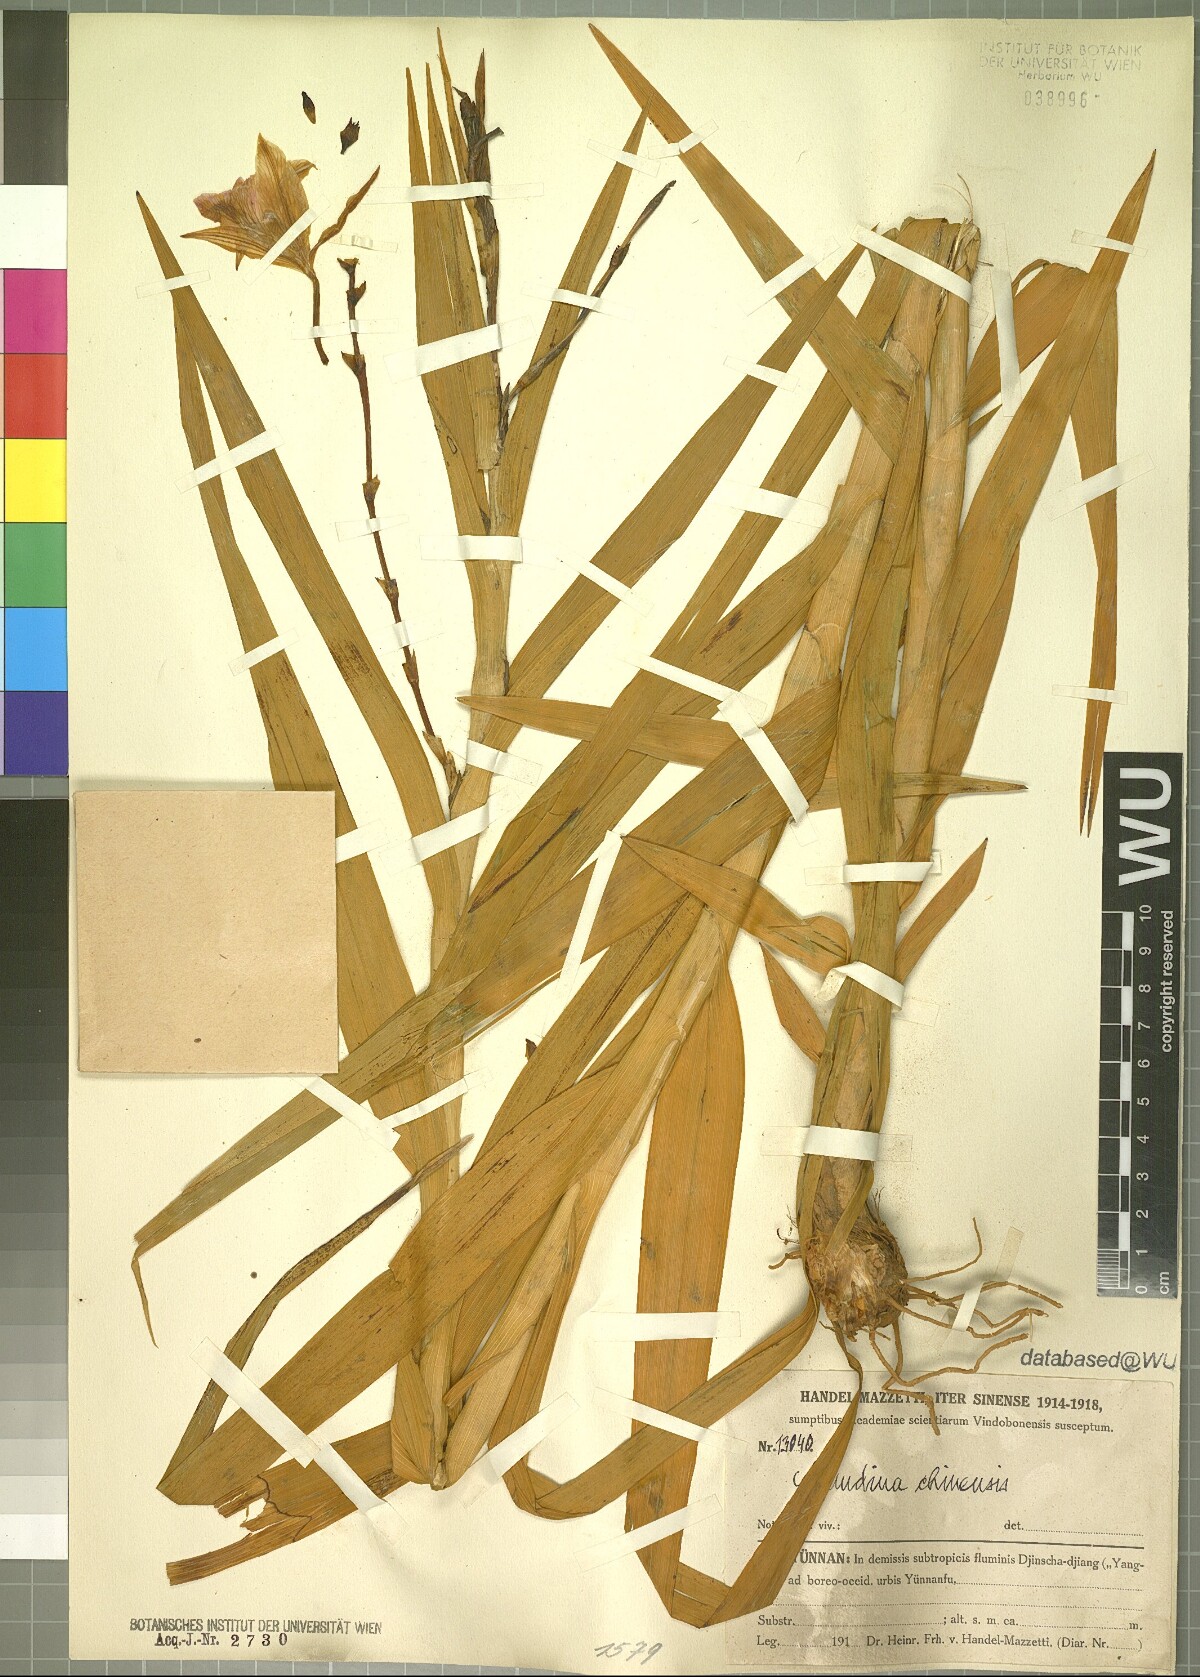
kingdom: Plantae
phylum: Tracheophyta
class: Liliopsida
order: Asparagales
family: Orchidaceae
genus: Arundina
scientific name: Arundina graminifolia
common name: Bamboo orchid
